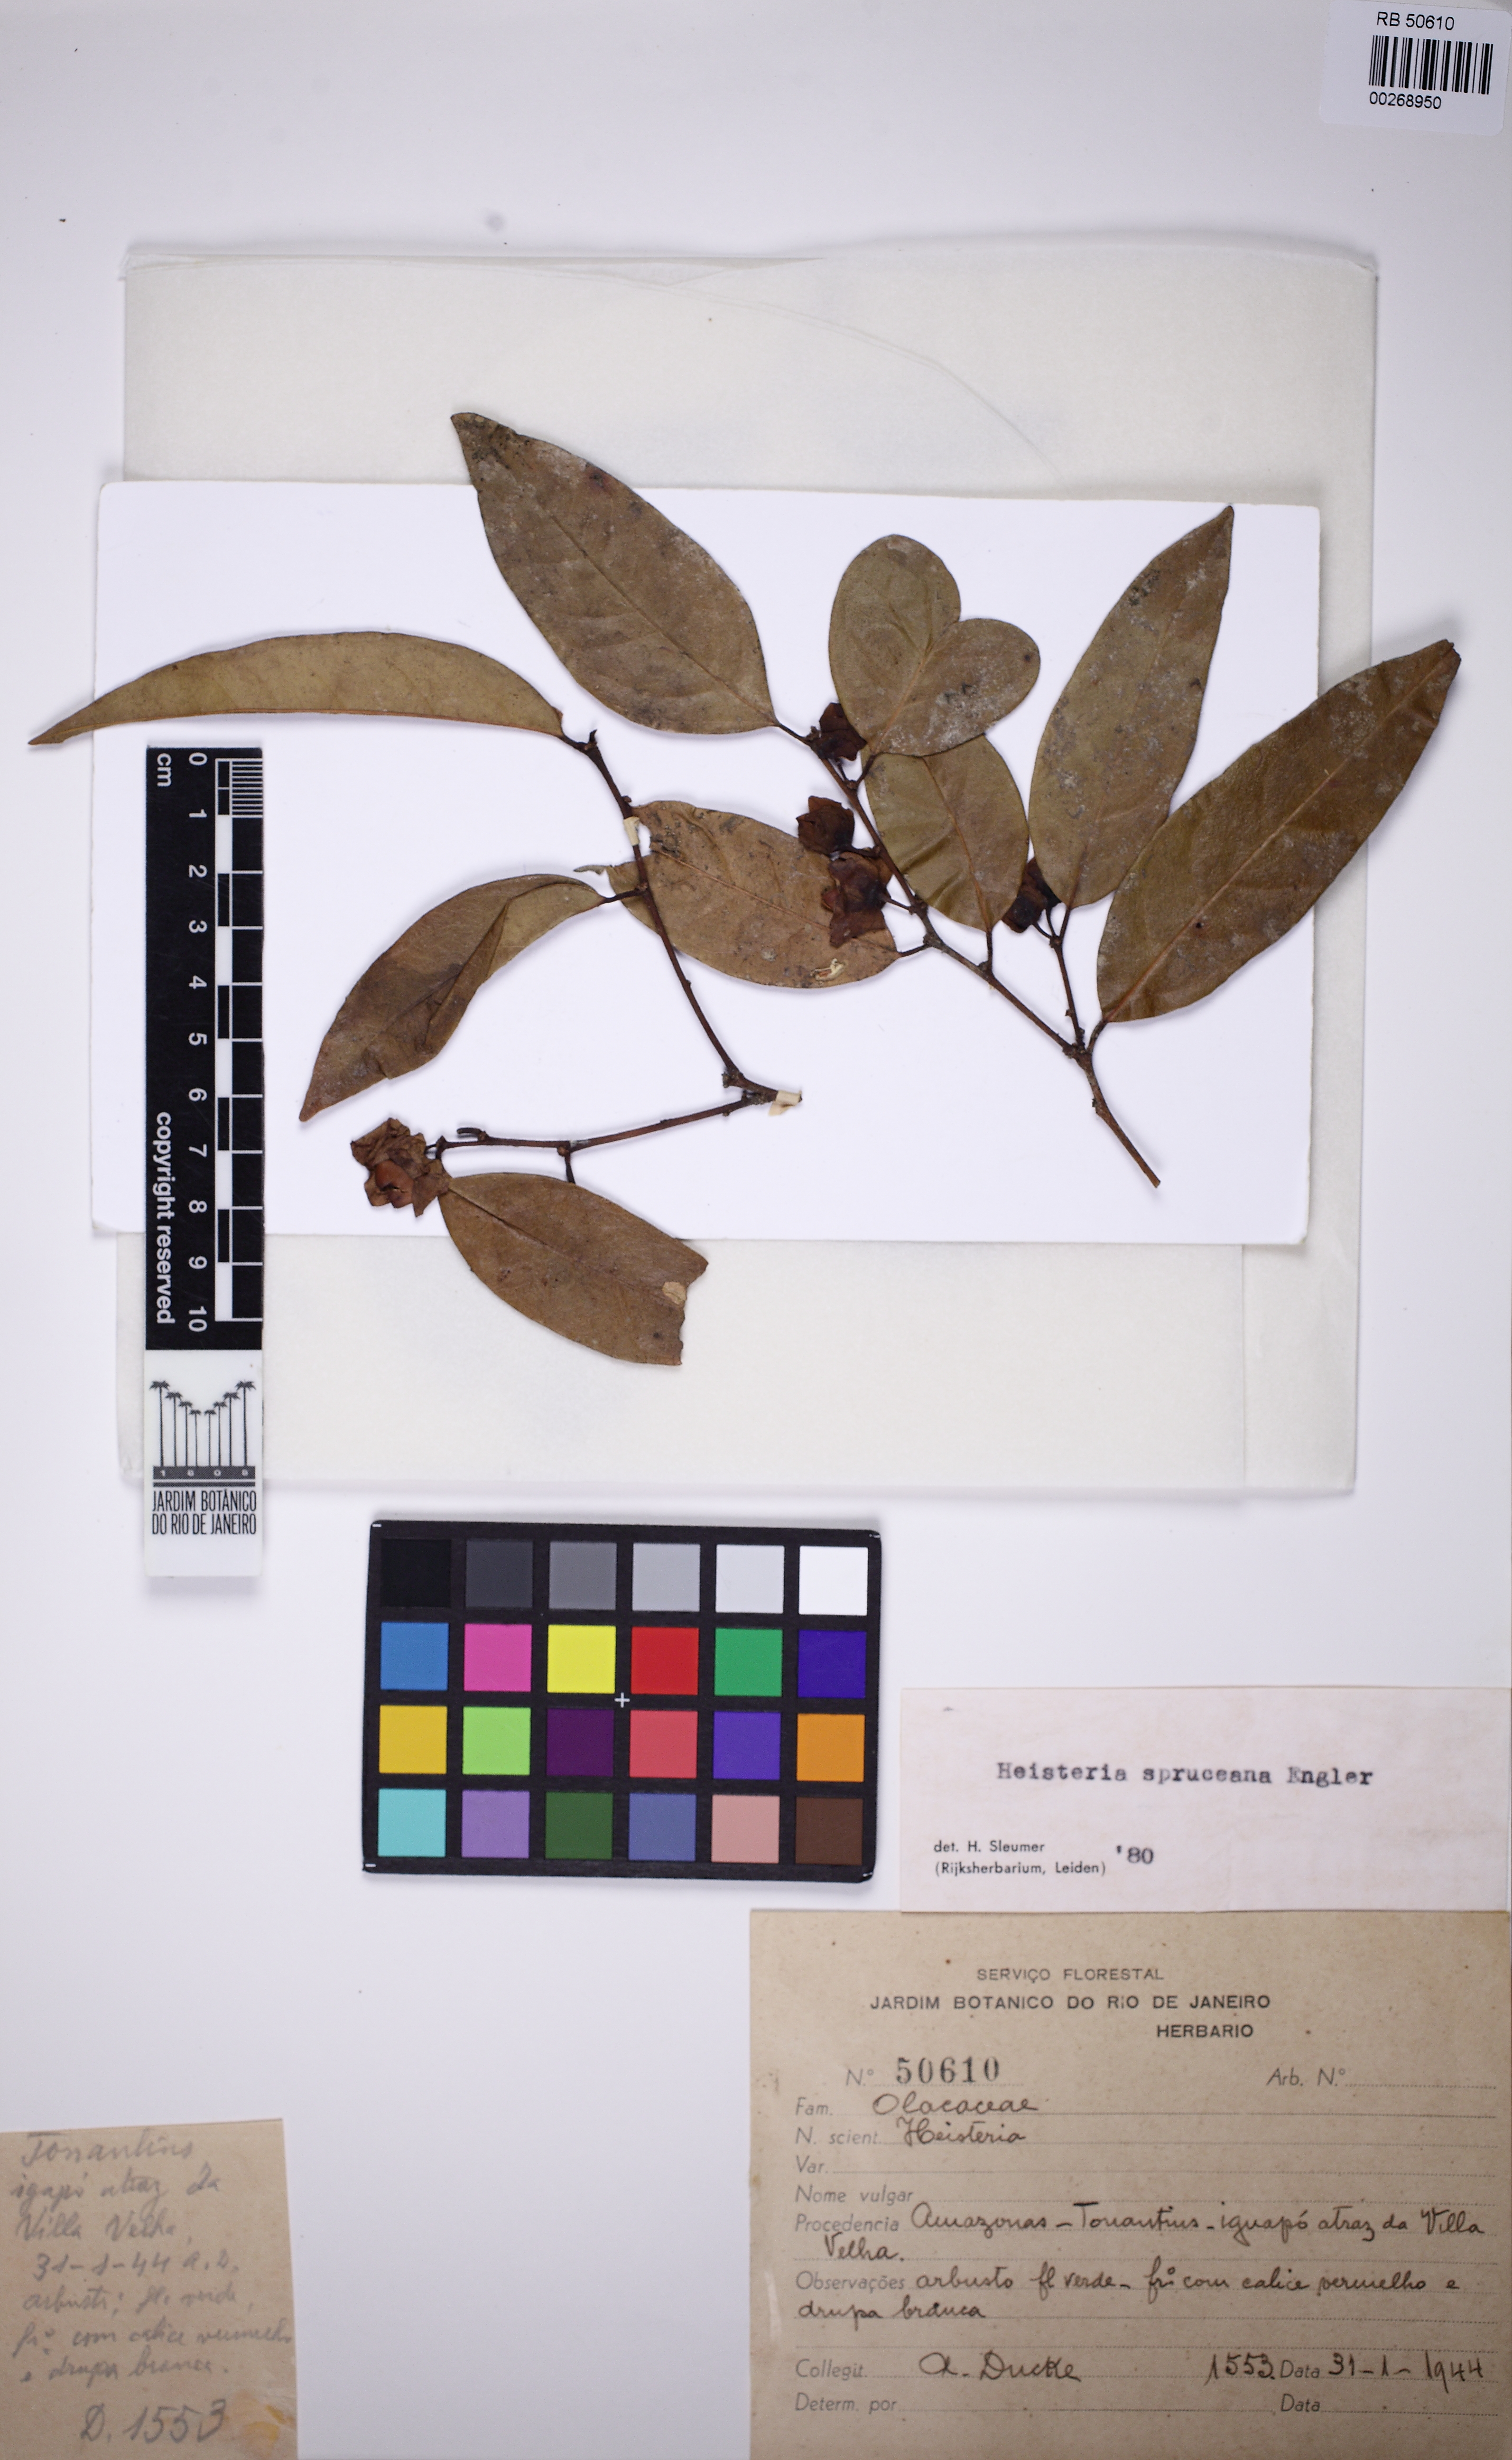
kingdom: Plantae
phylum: Tracheophyta
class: Magnoliopsida
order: Santalales
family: Erythropalaceae
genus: Heisteria
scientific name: Heisteria spruceana
